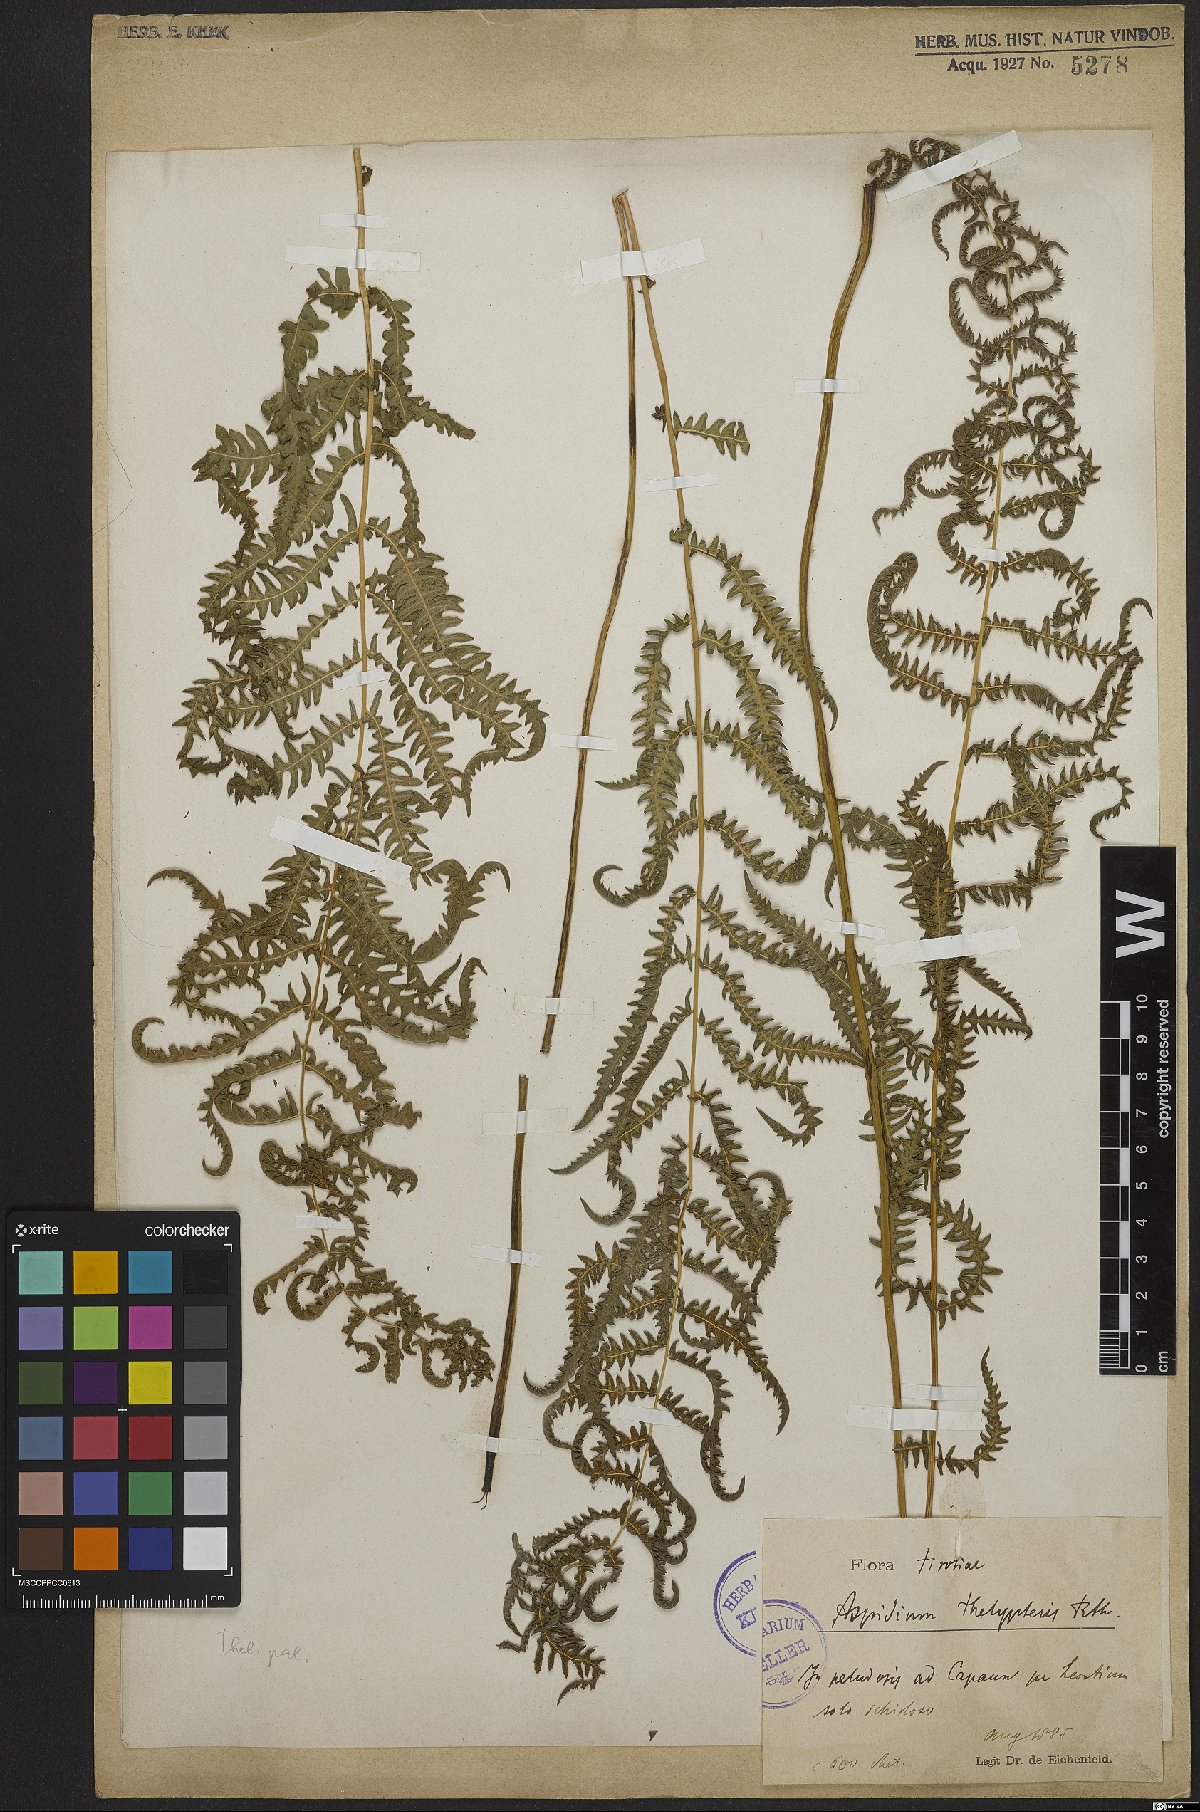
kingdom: Plantae
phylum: Tracheophyta
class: Polypodiopsida
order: Polypodiales
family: Thelypteridaceae
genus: Thelypteris
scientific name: Thelypteris palustris
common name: Marsh fern
